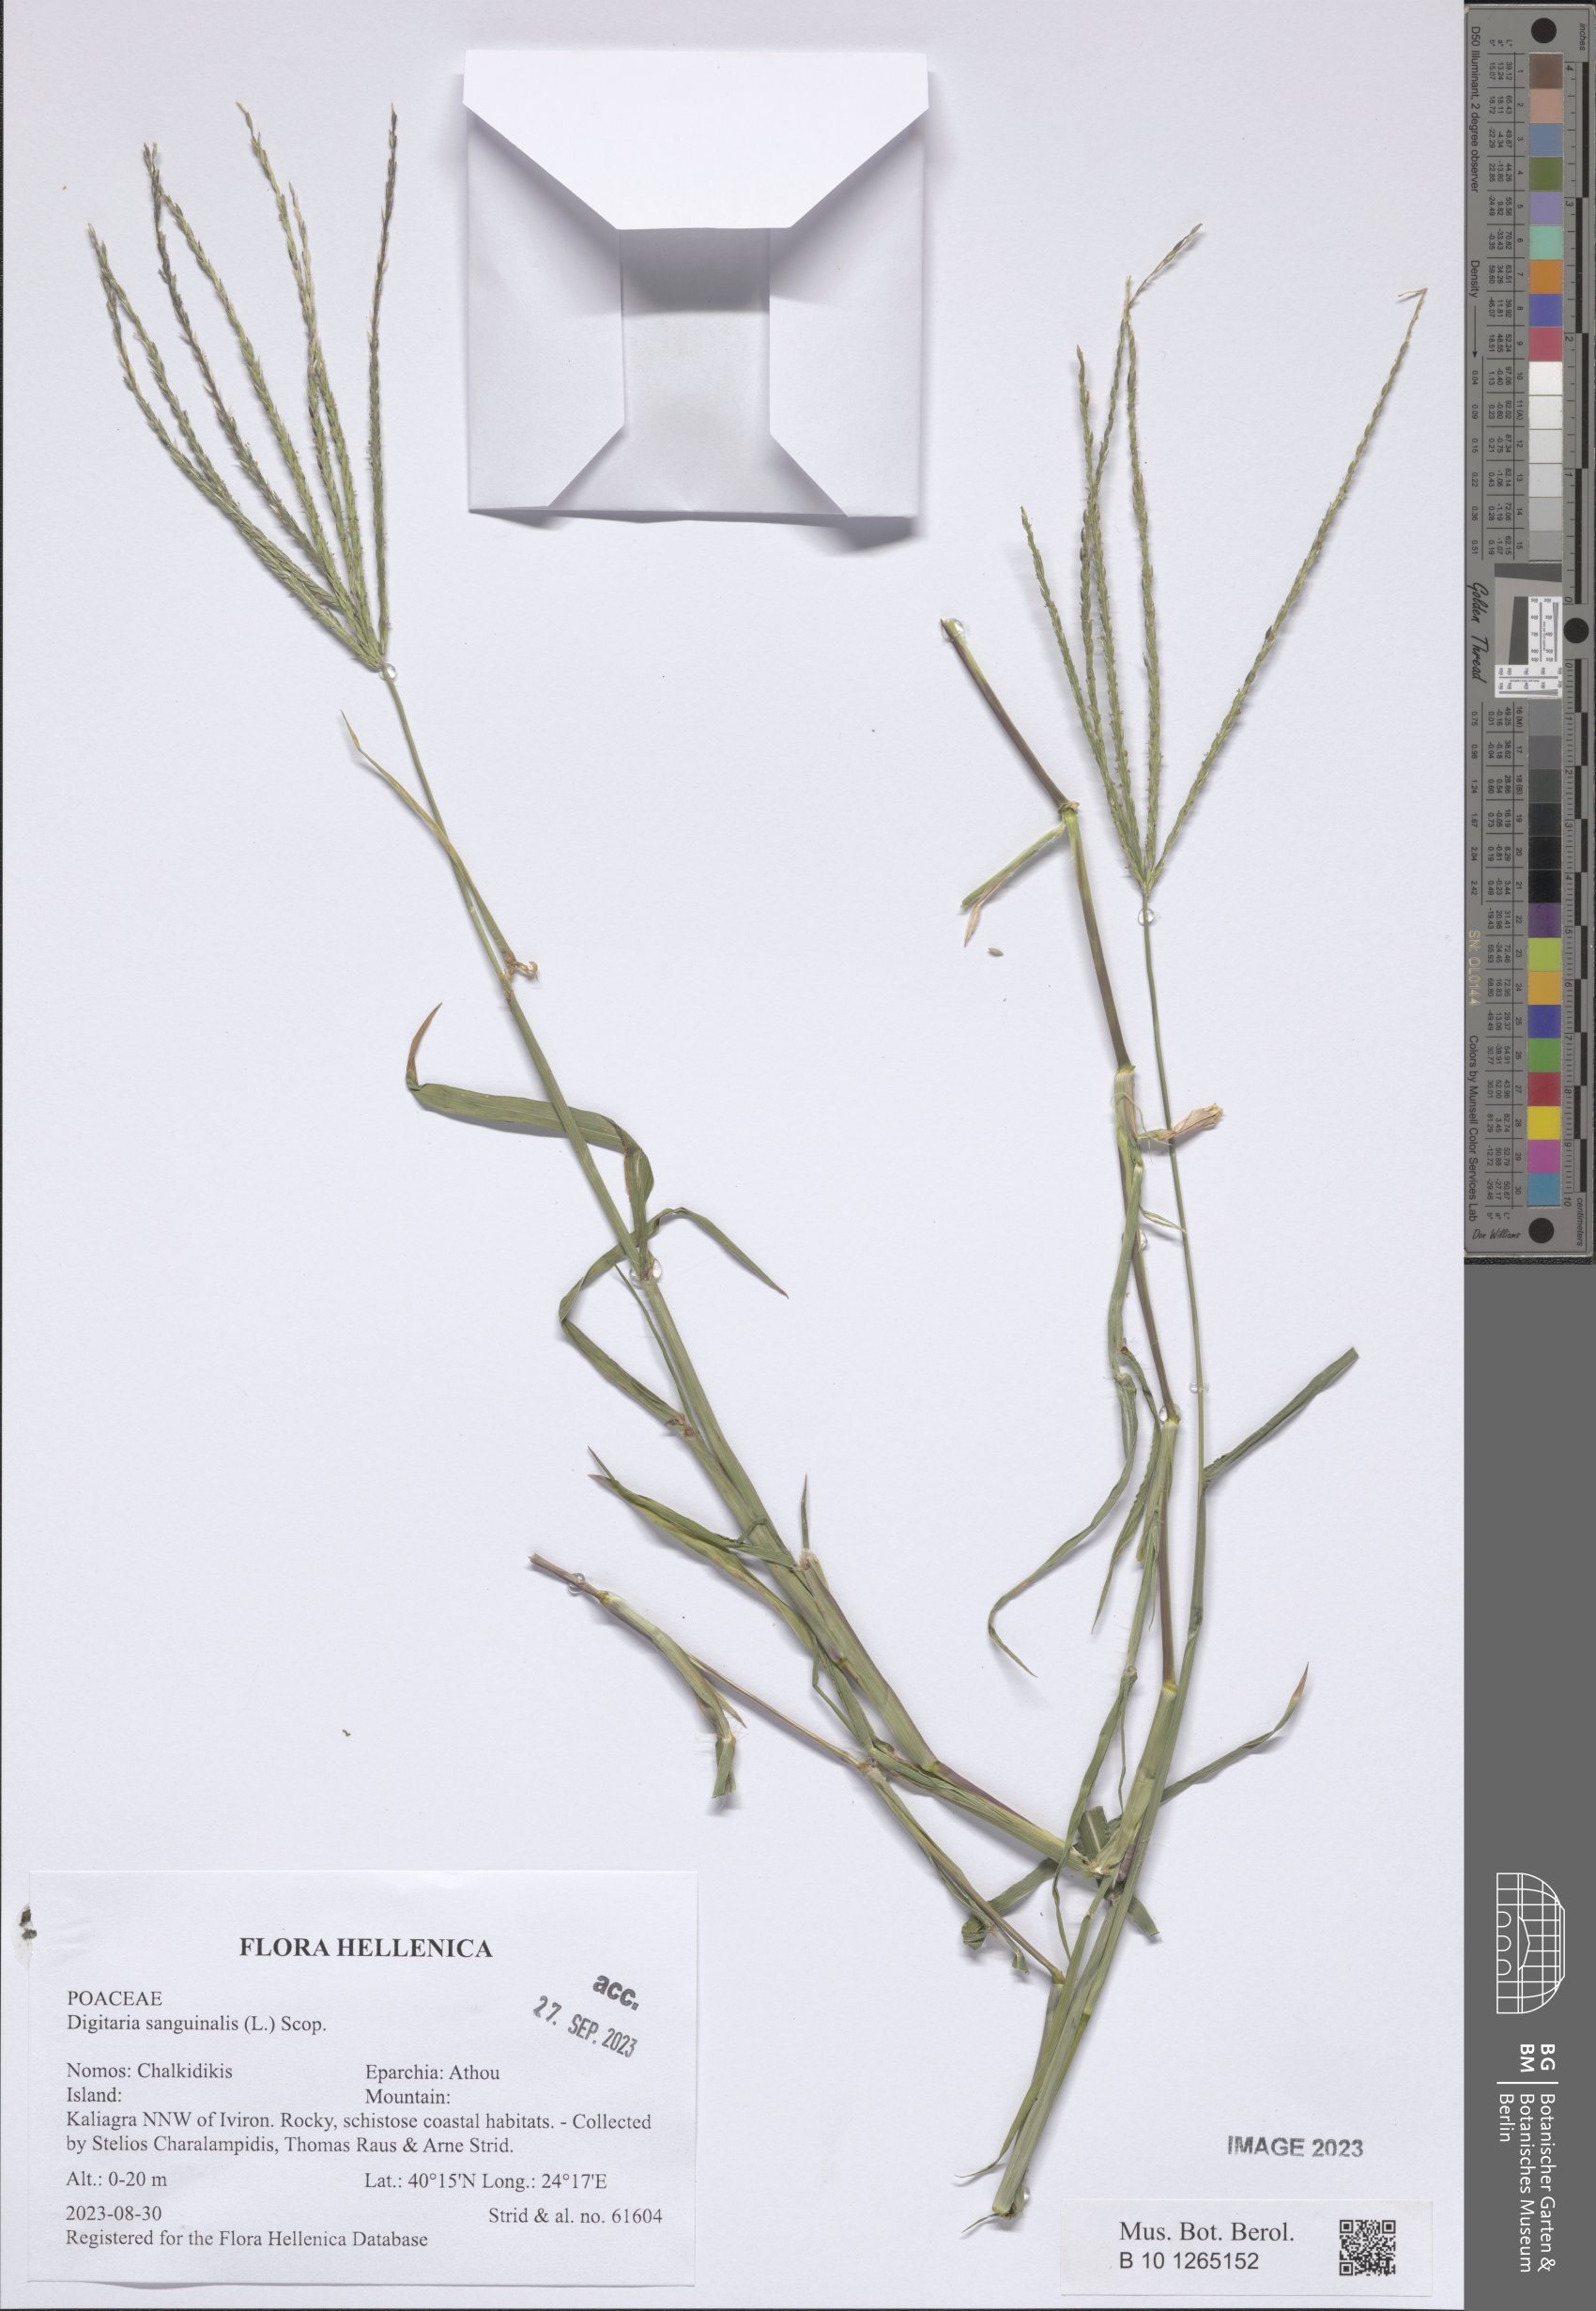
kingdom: Plantae
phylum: Tracheophyta
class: Liliopsida
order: Poales
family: Poaceae
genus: Digitaria
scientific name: Digitaria sanguinalis
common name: Hairy crabgrass
